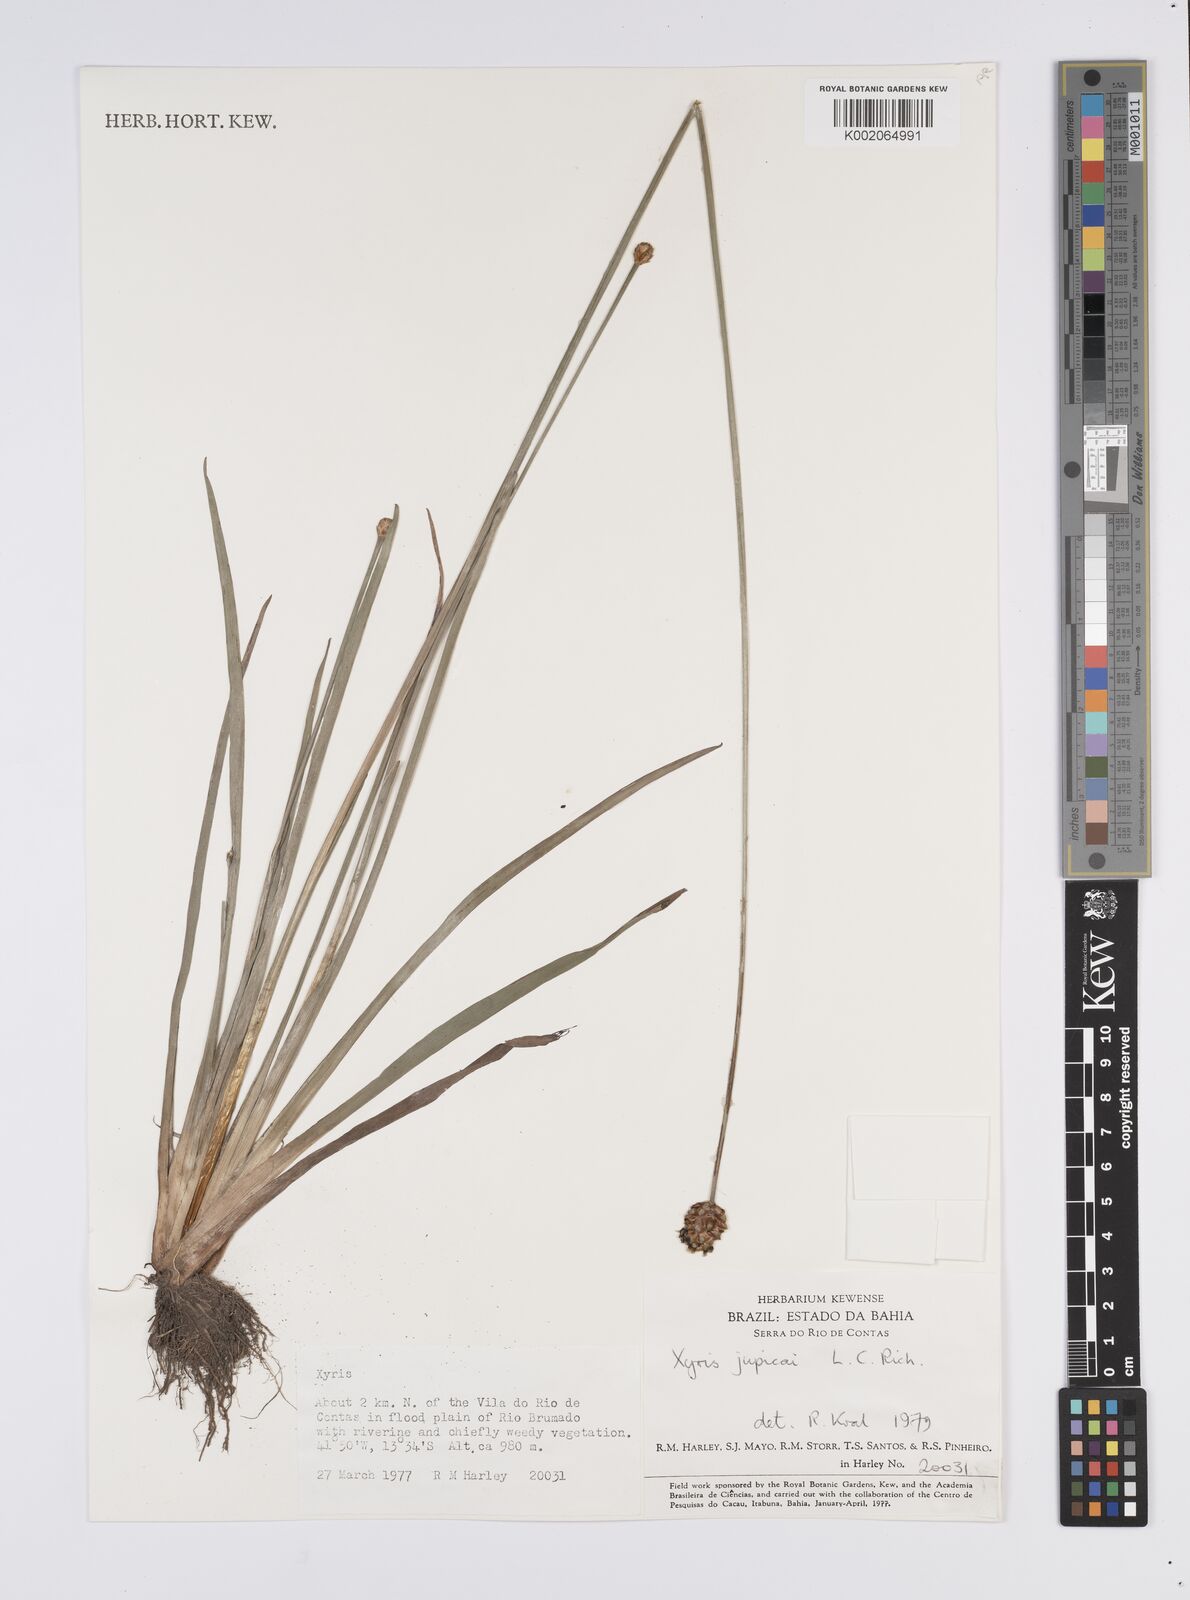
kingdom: Plantae
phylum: Tracheophyta
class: Liliopsida
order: Poales
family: Xyridaceae
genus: Xyris
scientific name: Xyris jupicai
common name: Richard's yelloweyed grass
